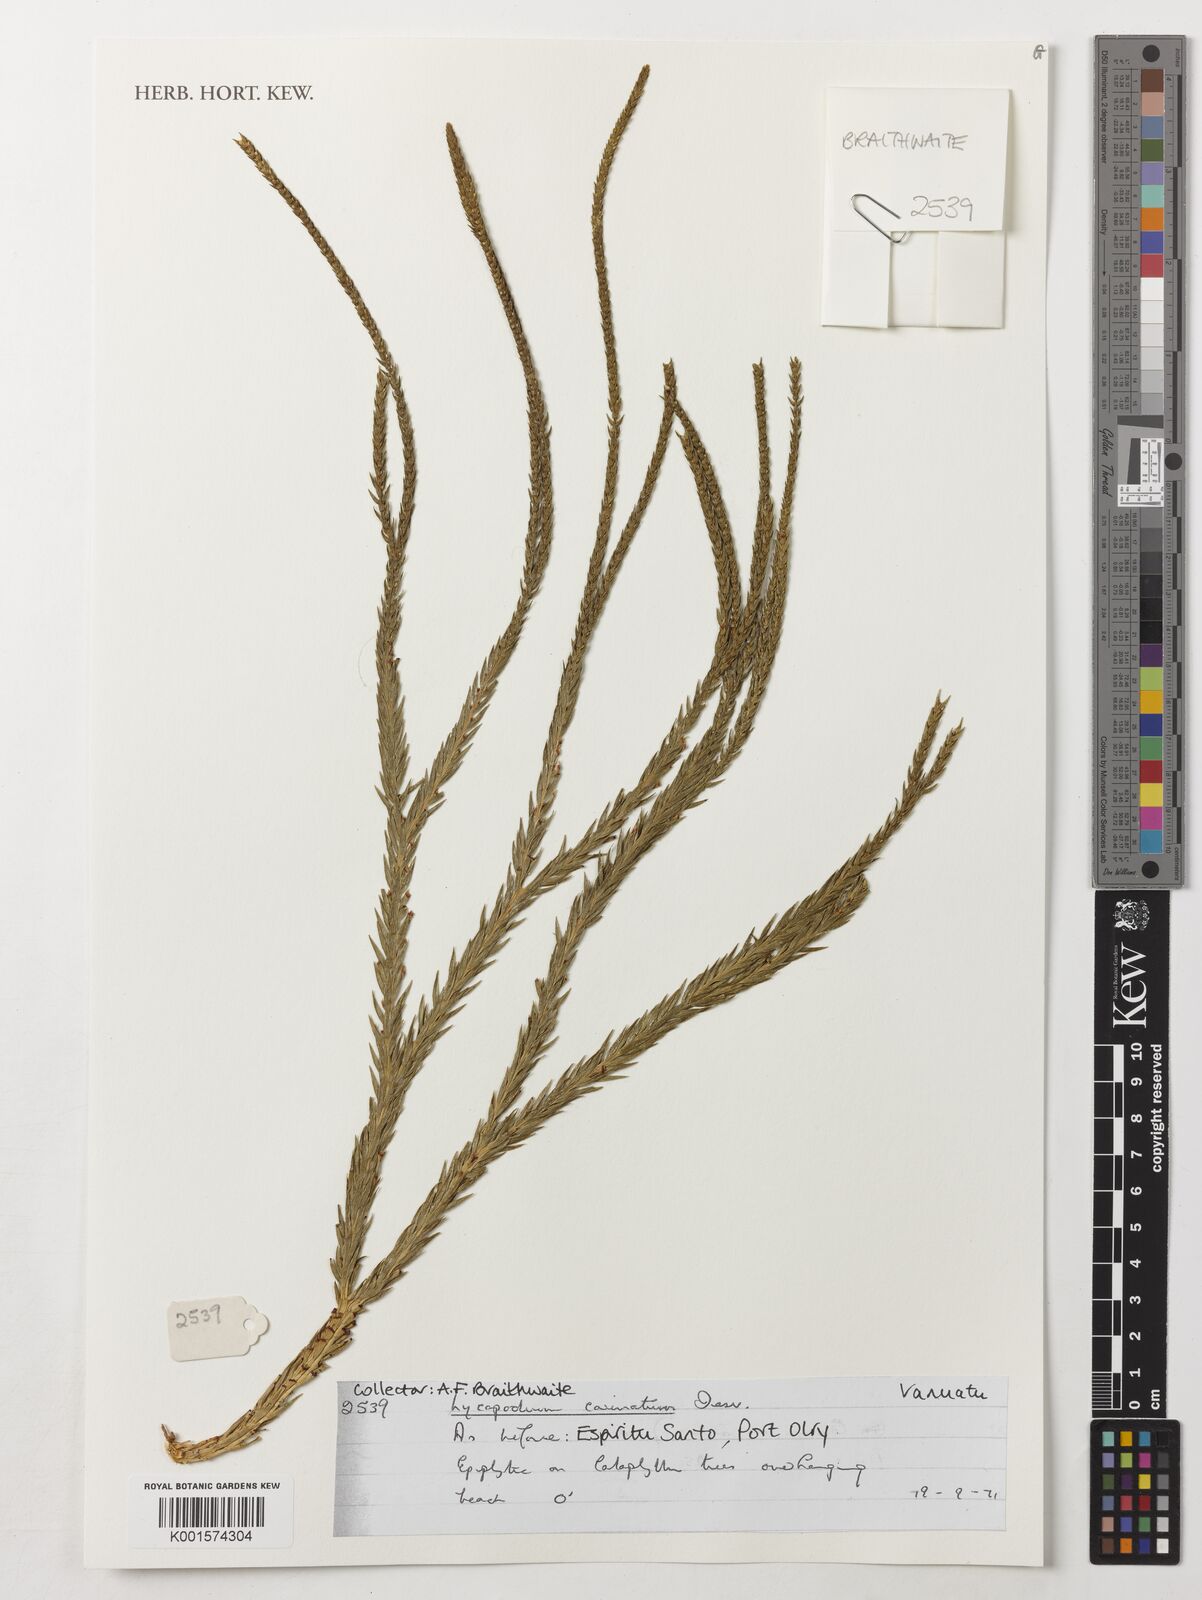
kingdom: Plantae
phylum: Tracheophyta
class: Lycopodiopsida
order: Lycopodiales
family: Lycopodiaceae
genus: Phlegmariurus
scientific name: Phlegmariurus carinatus
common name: Keeled tassel-fern
